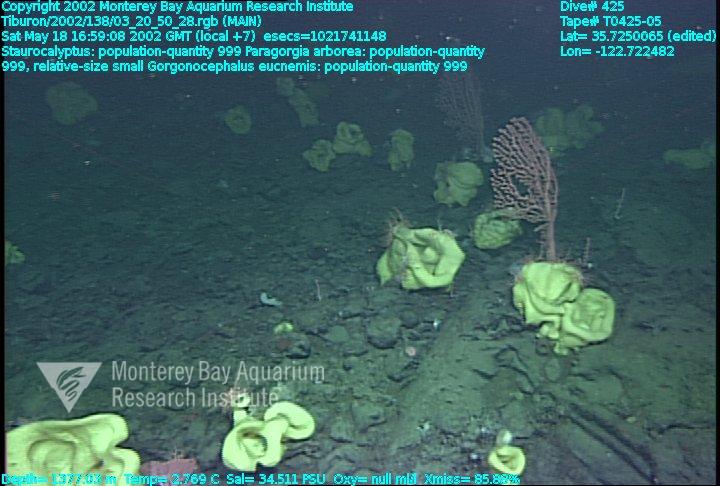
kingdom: Animalia
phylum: Porifera
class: Hexactinellida
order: Lyssacinosida
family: Rossellidae
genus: Staurocalyptus
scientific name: Staurocalyptus
